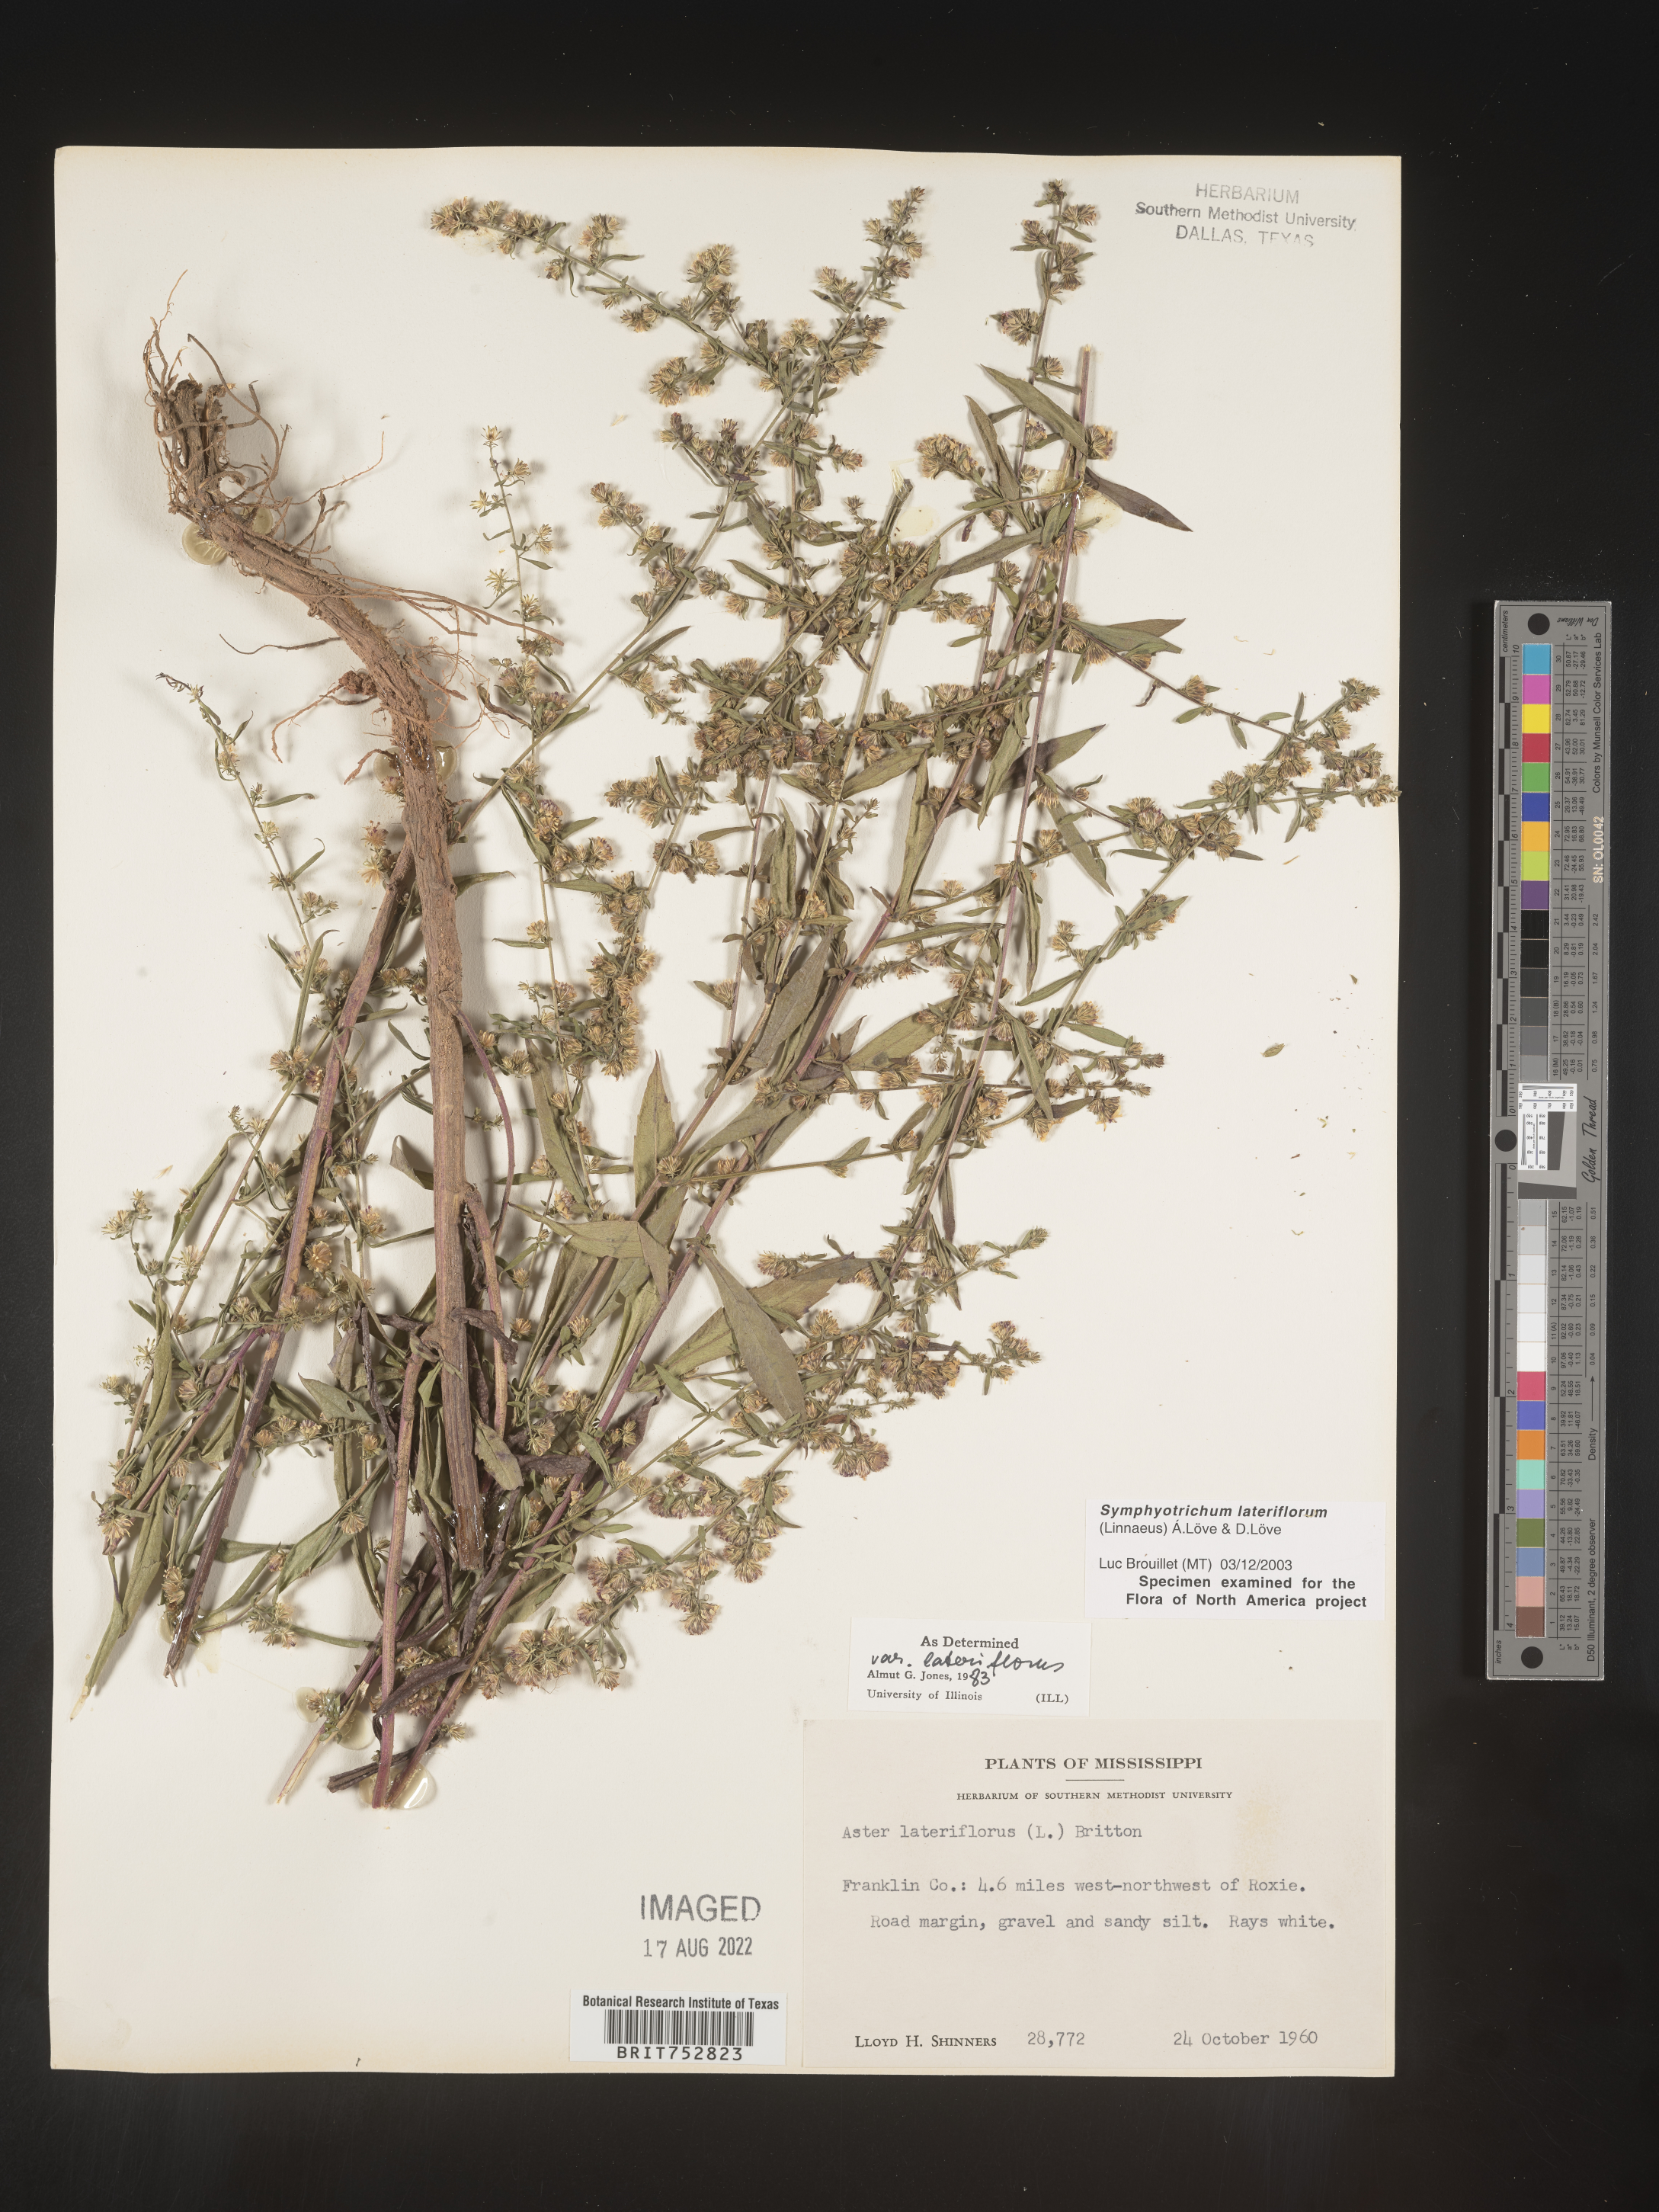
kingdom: Plantae
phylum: Tracheophyta
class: Magnoliopsida
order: Asterales
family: Asteraceae
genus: Symphyotrichum
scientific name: Symphyotrichum lateriflorum
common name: Calico aster
